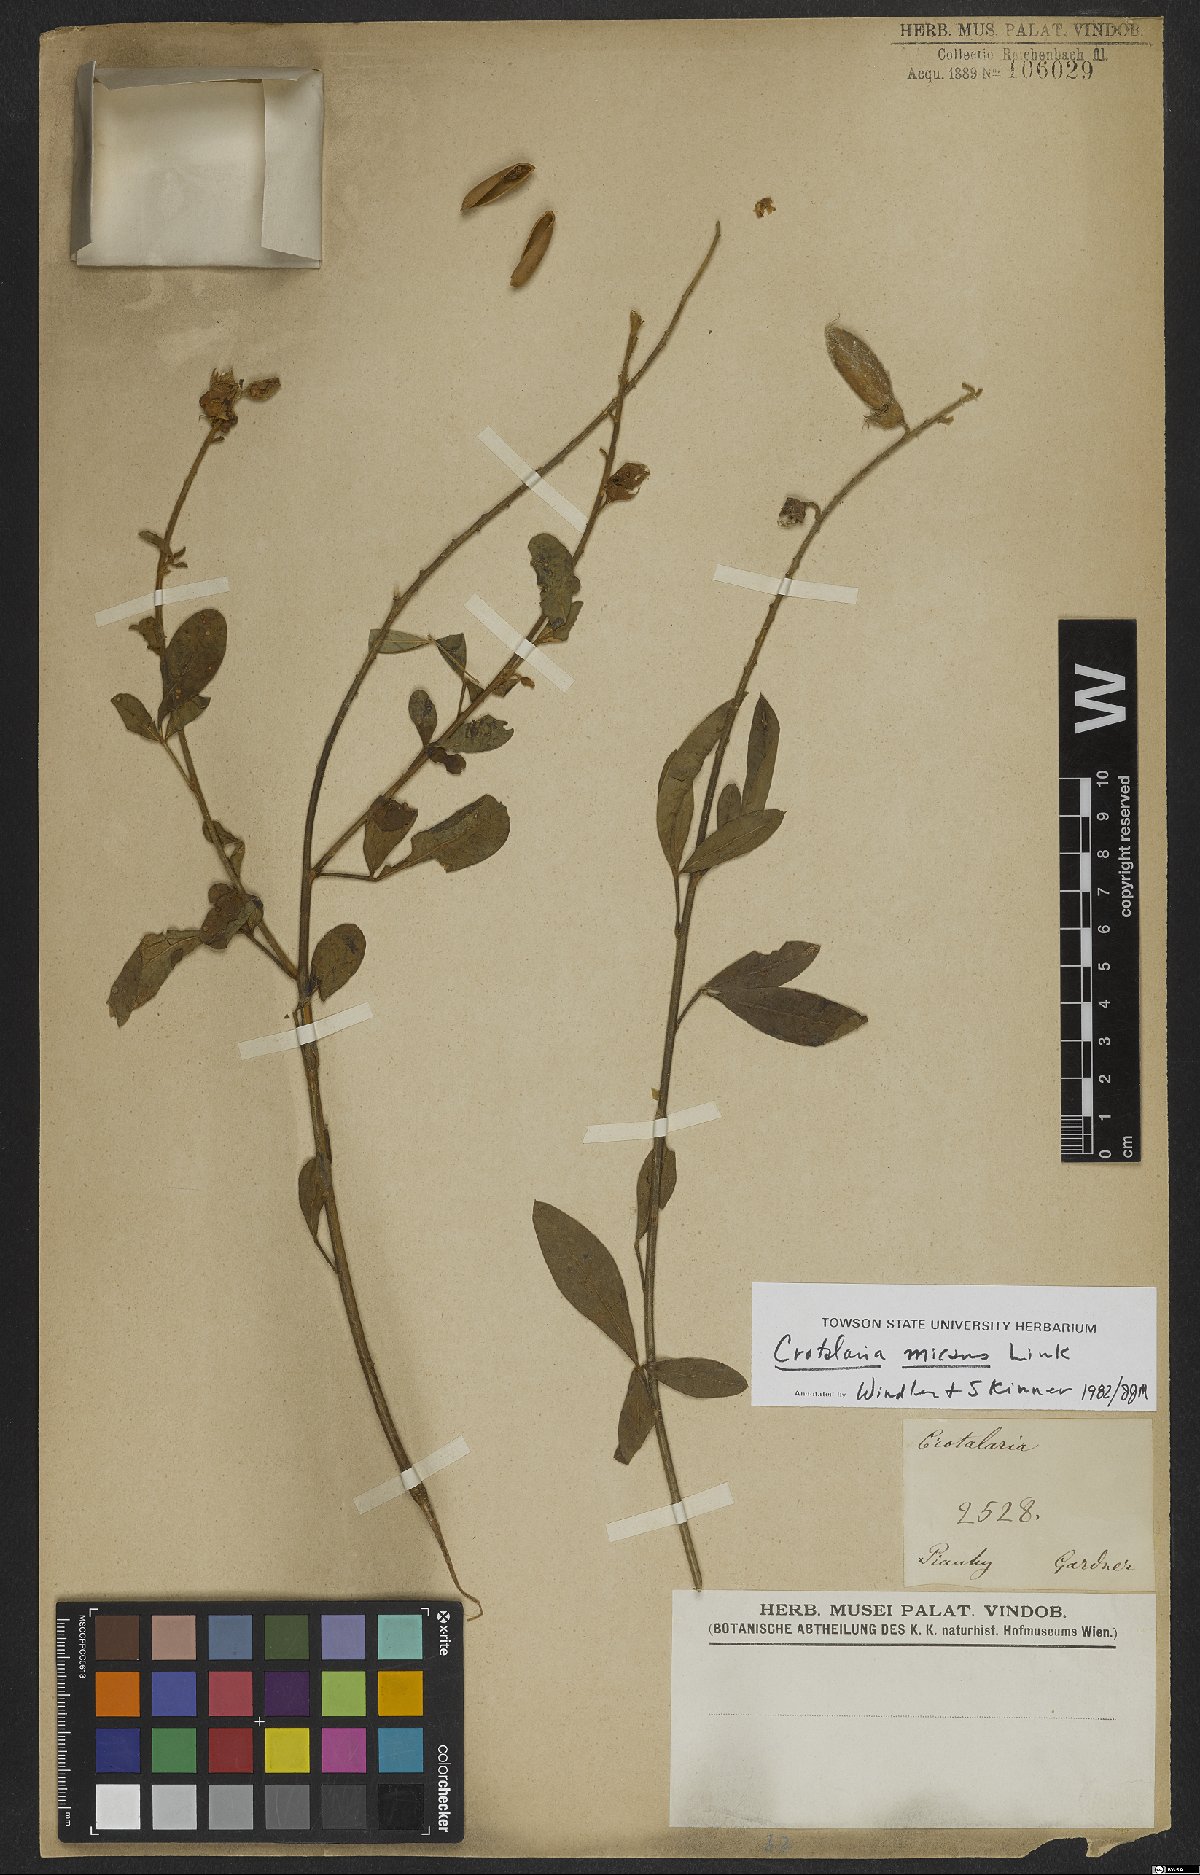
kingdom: Plantae
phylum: Tracheophyta
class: Magnoliopsida
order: Fabales
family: Fabaceae
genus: Crotalaria
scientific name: Crotalaria micans
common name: Caracas rattlebox
